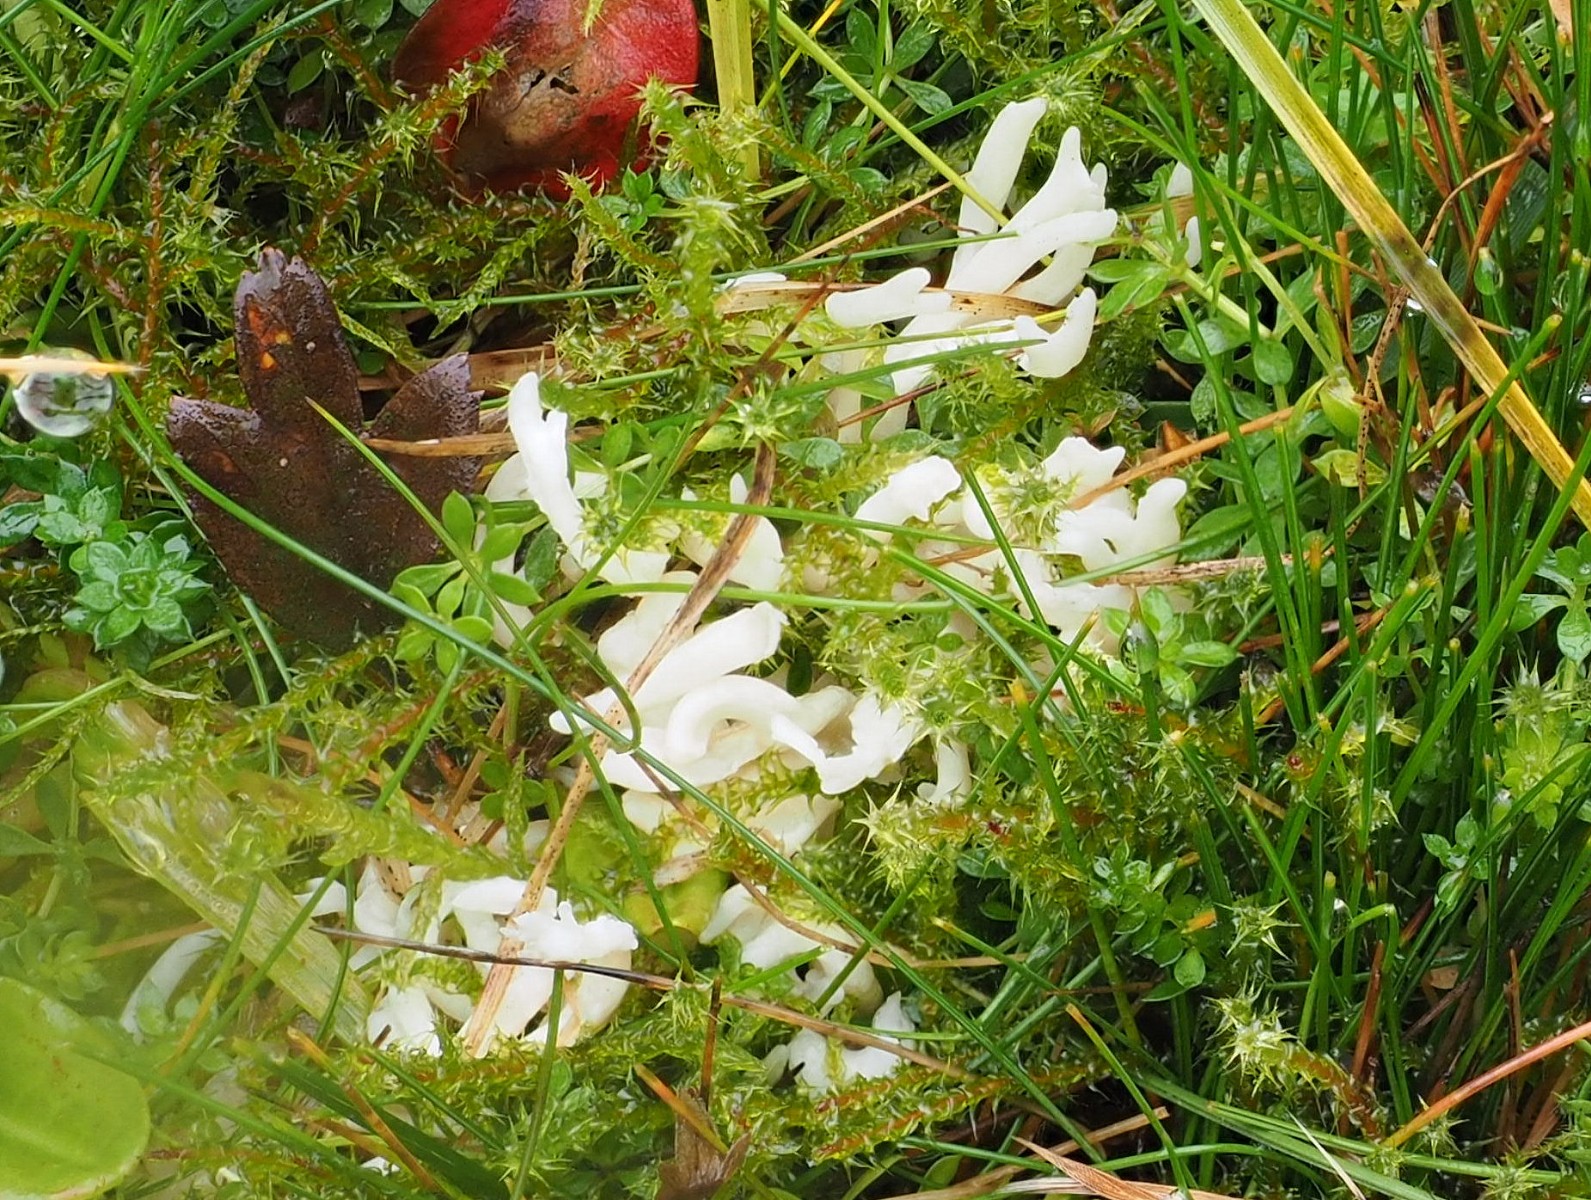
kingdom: Fungi
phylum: Basidiomycota
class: Agaricomycetes
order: Agaricales
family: Clavariaceae
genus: Ramariopsis
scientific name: Ramariopsis
